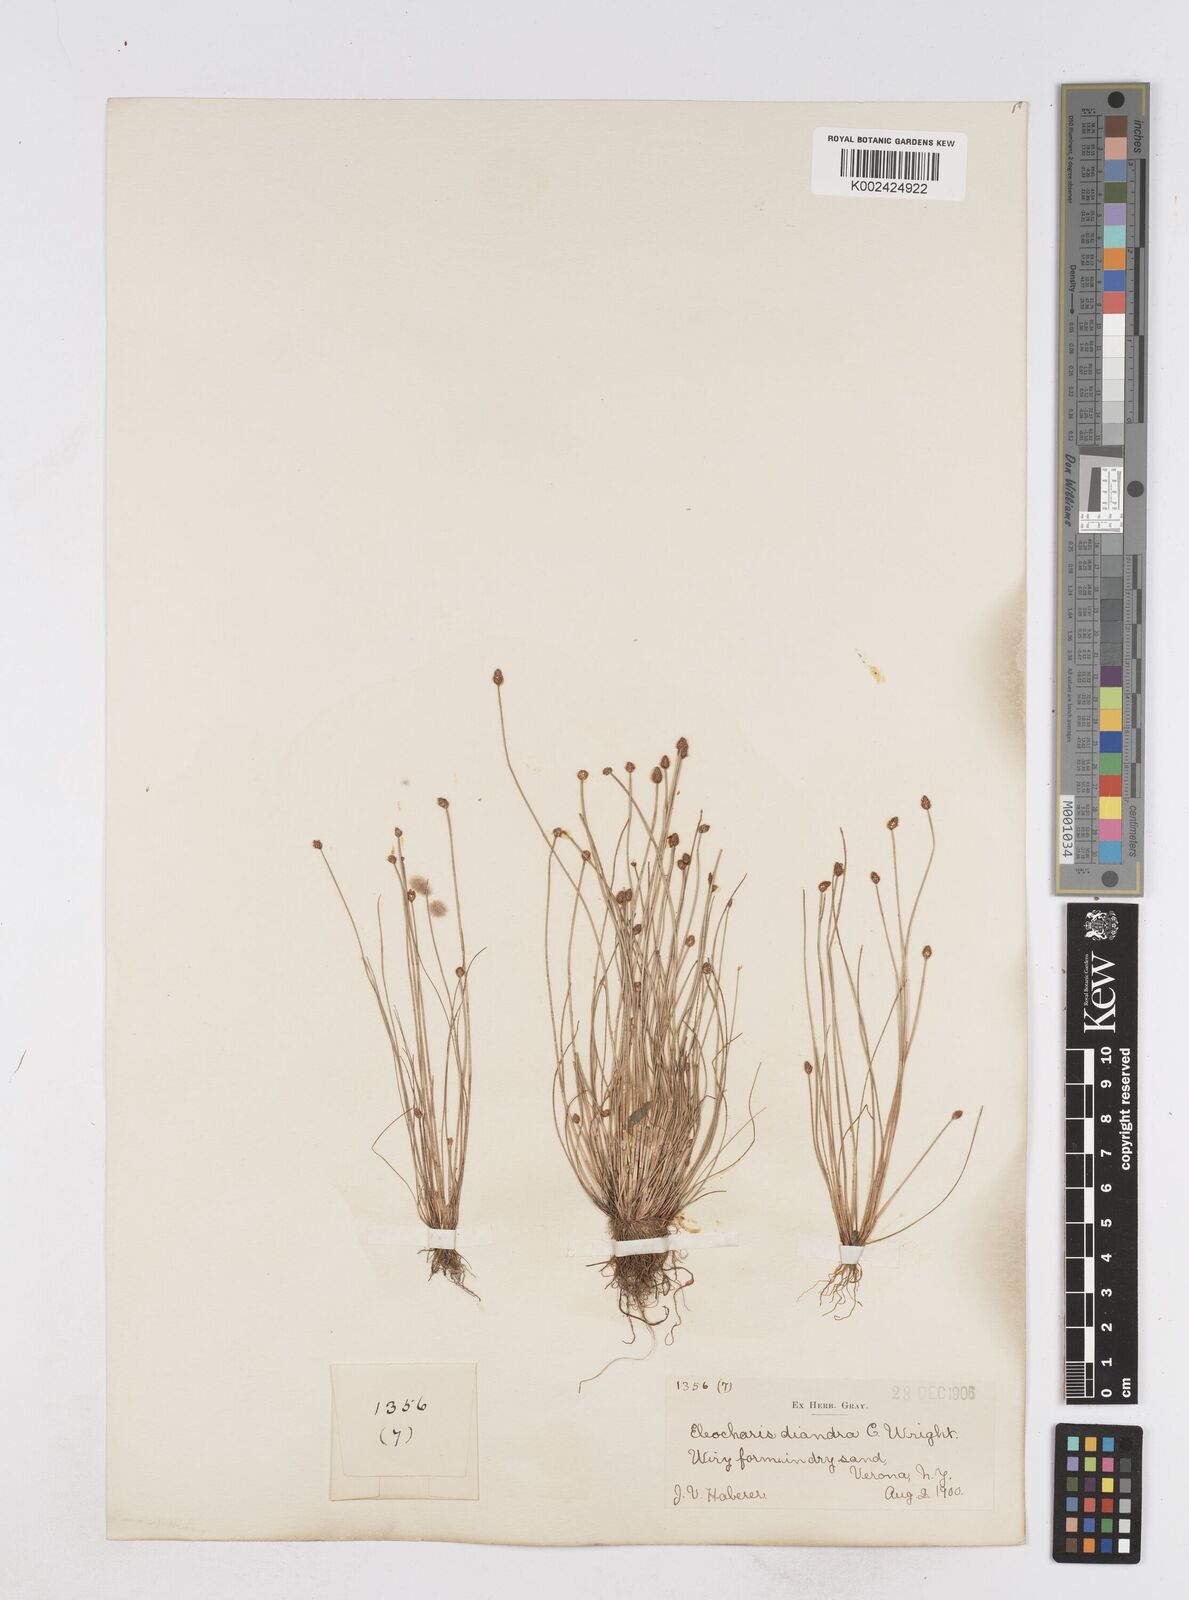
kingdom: Plantae
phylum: Tracheophyta
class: Liliopsida
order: Poales
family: Cyperaceae
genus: Eleocharis
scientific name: Eleocharis ovata
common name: Oval spike-rush
